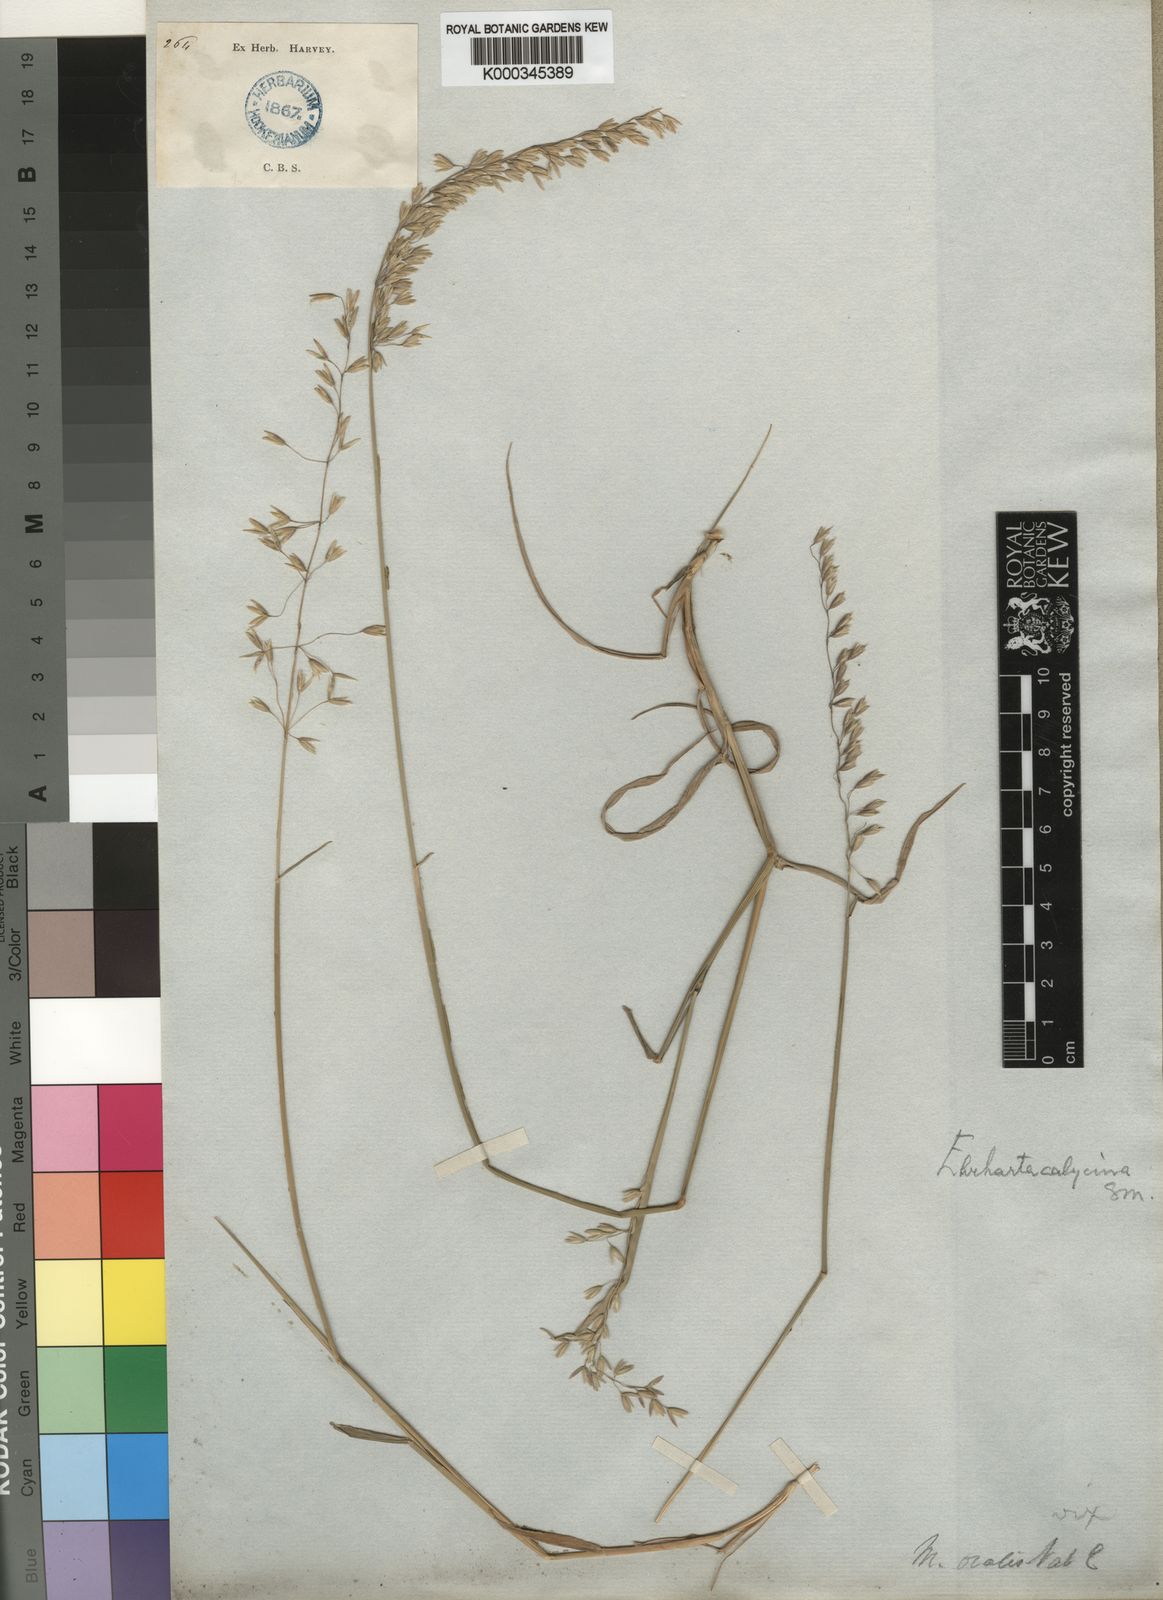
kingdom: Plantae
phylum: Tracheophyta
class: Liliopsida
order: Poales
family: Poaceae
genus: Ehrharta
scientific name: Ehrharta calycina
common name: Perennial veldtgrass
